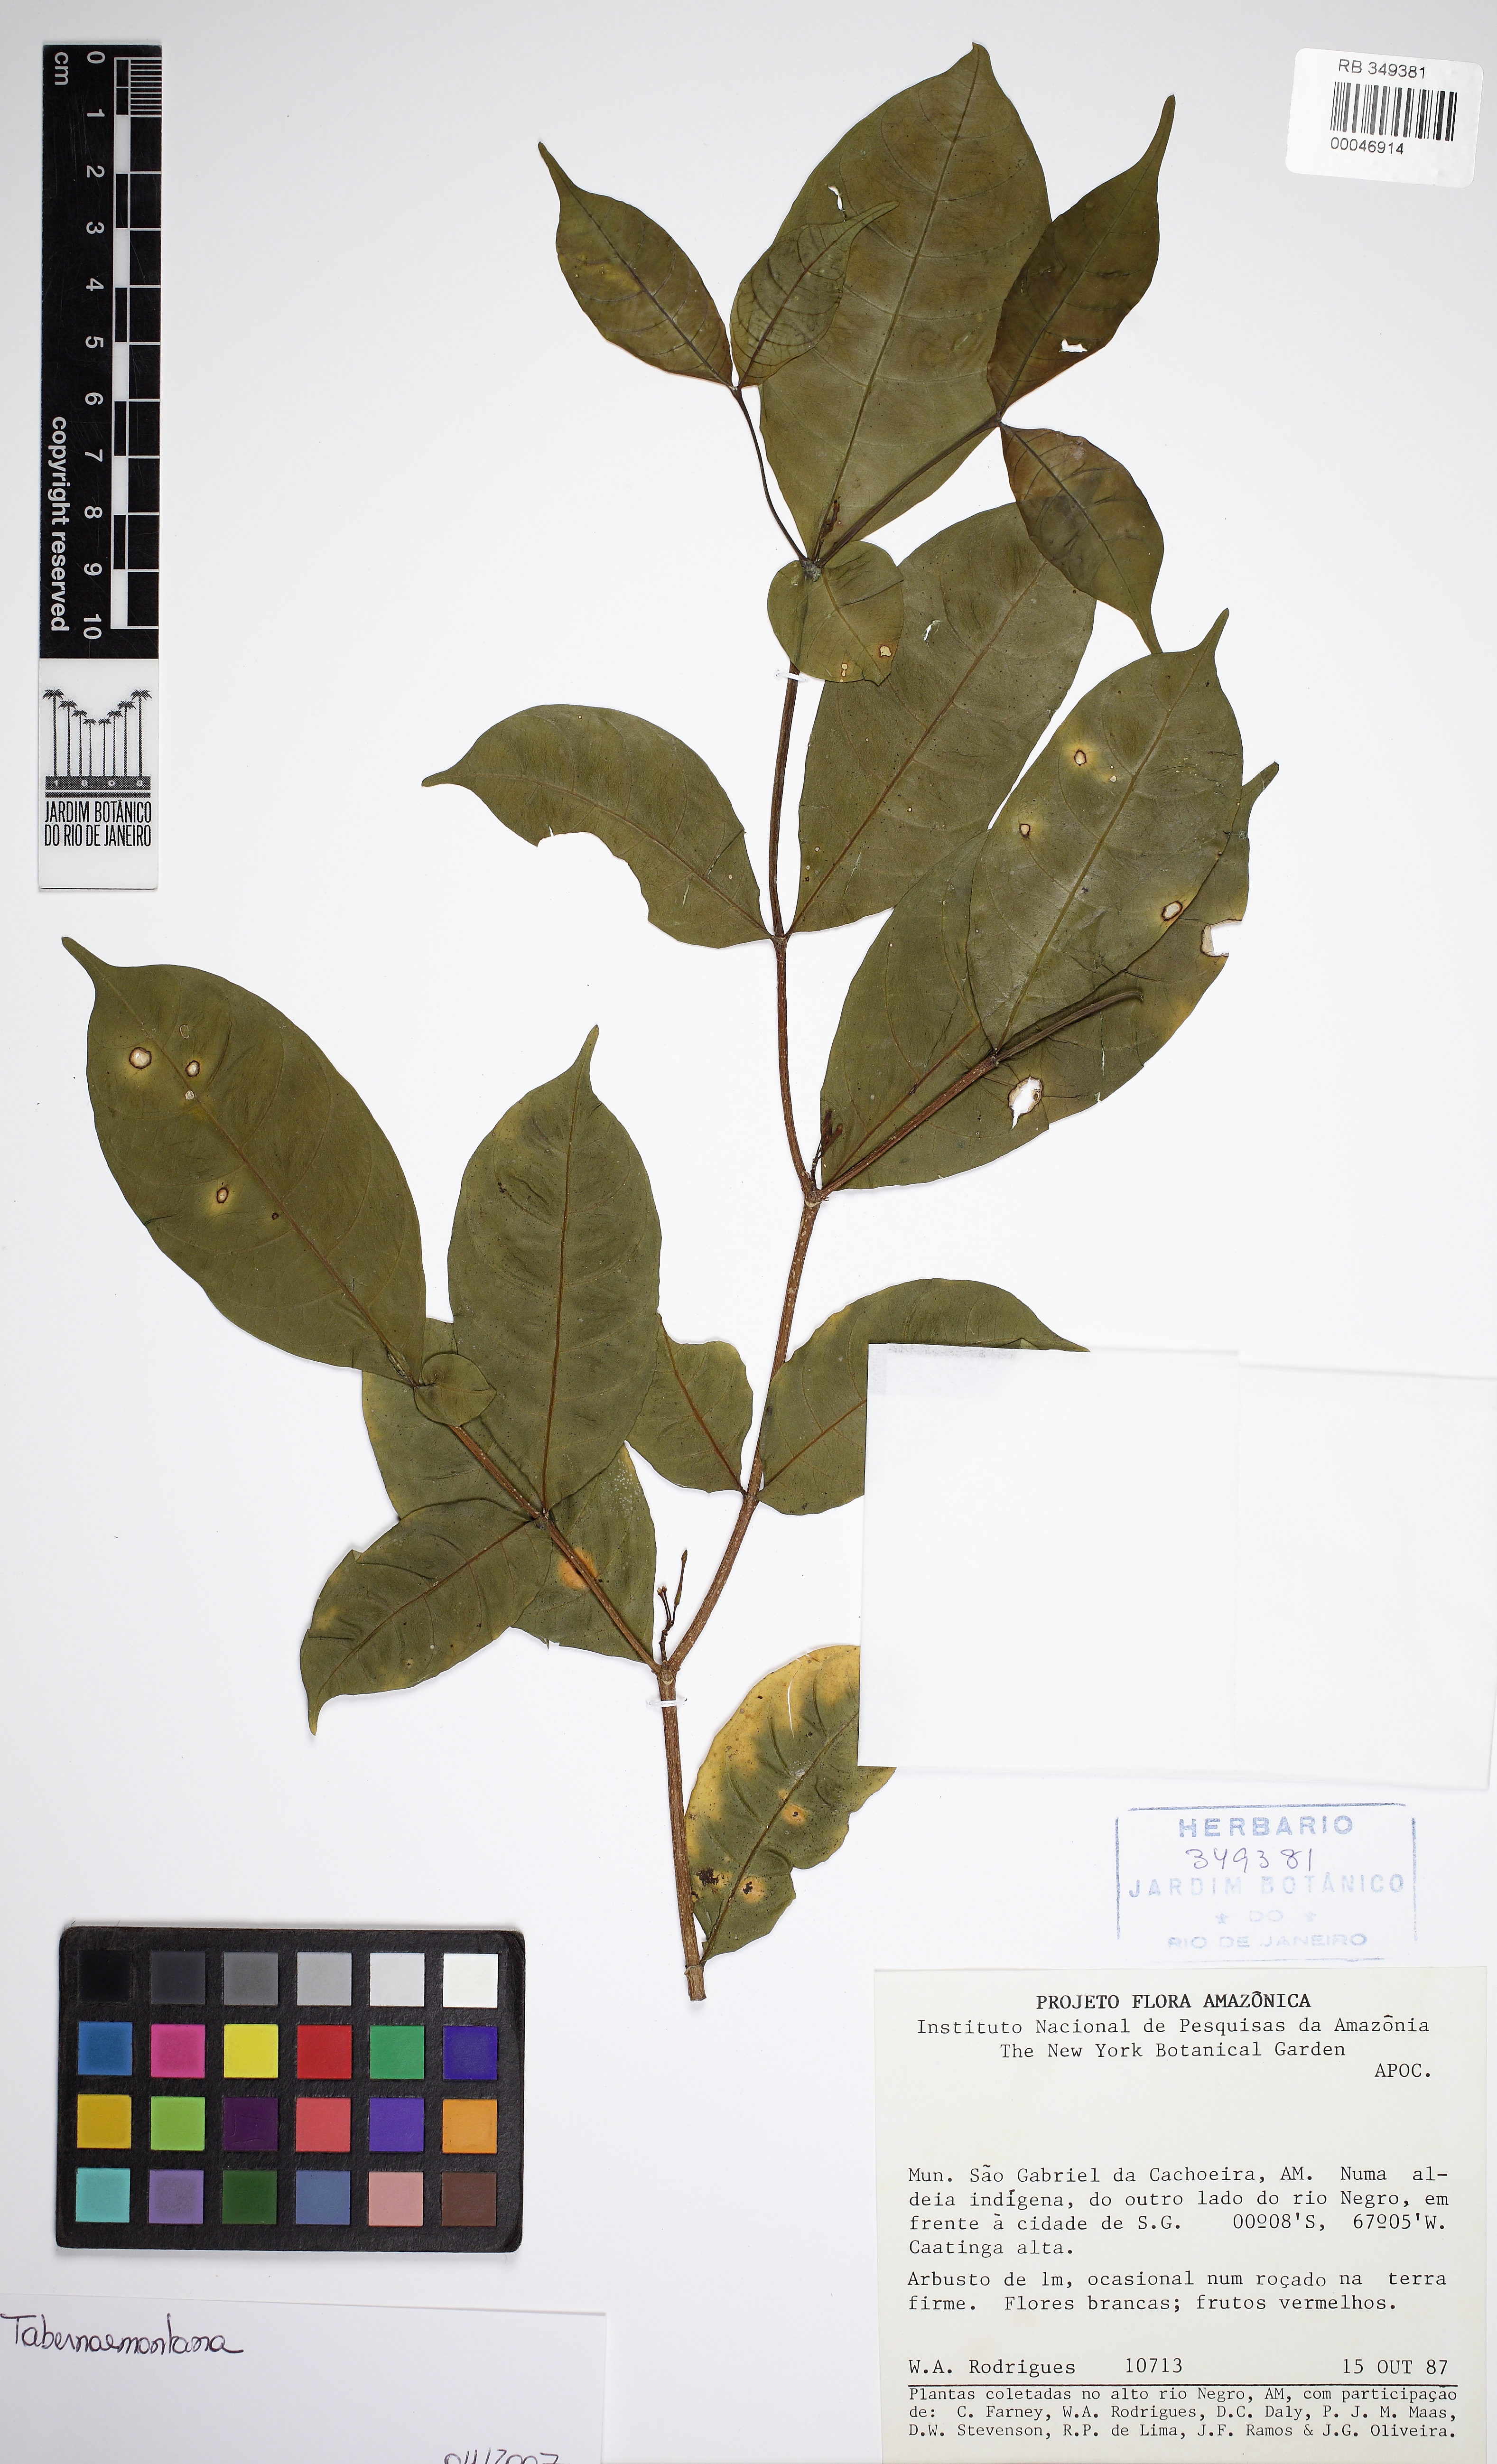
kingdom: Plantae
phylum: Tracheophyta
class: Magnoliopsida
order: Gentianales
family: Apocynaceae
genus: Tabernaemontana
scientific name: Tabernaemontana
